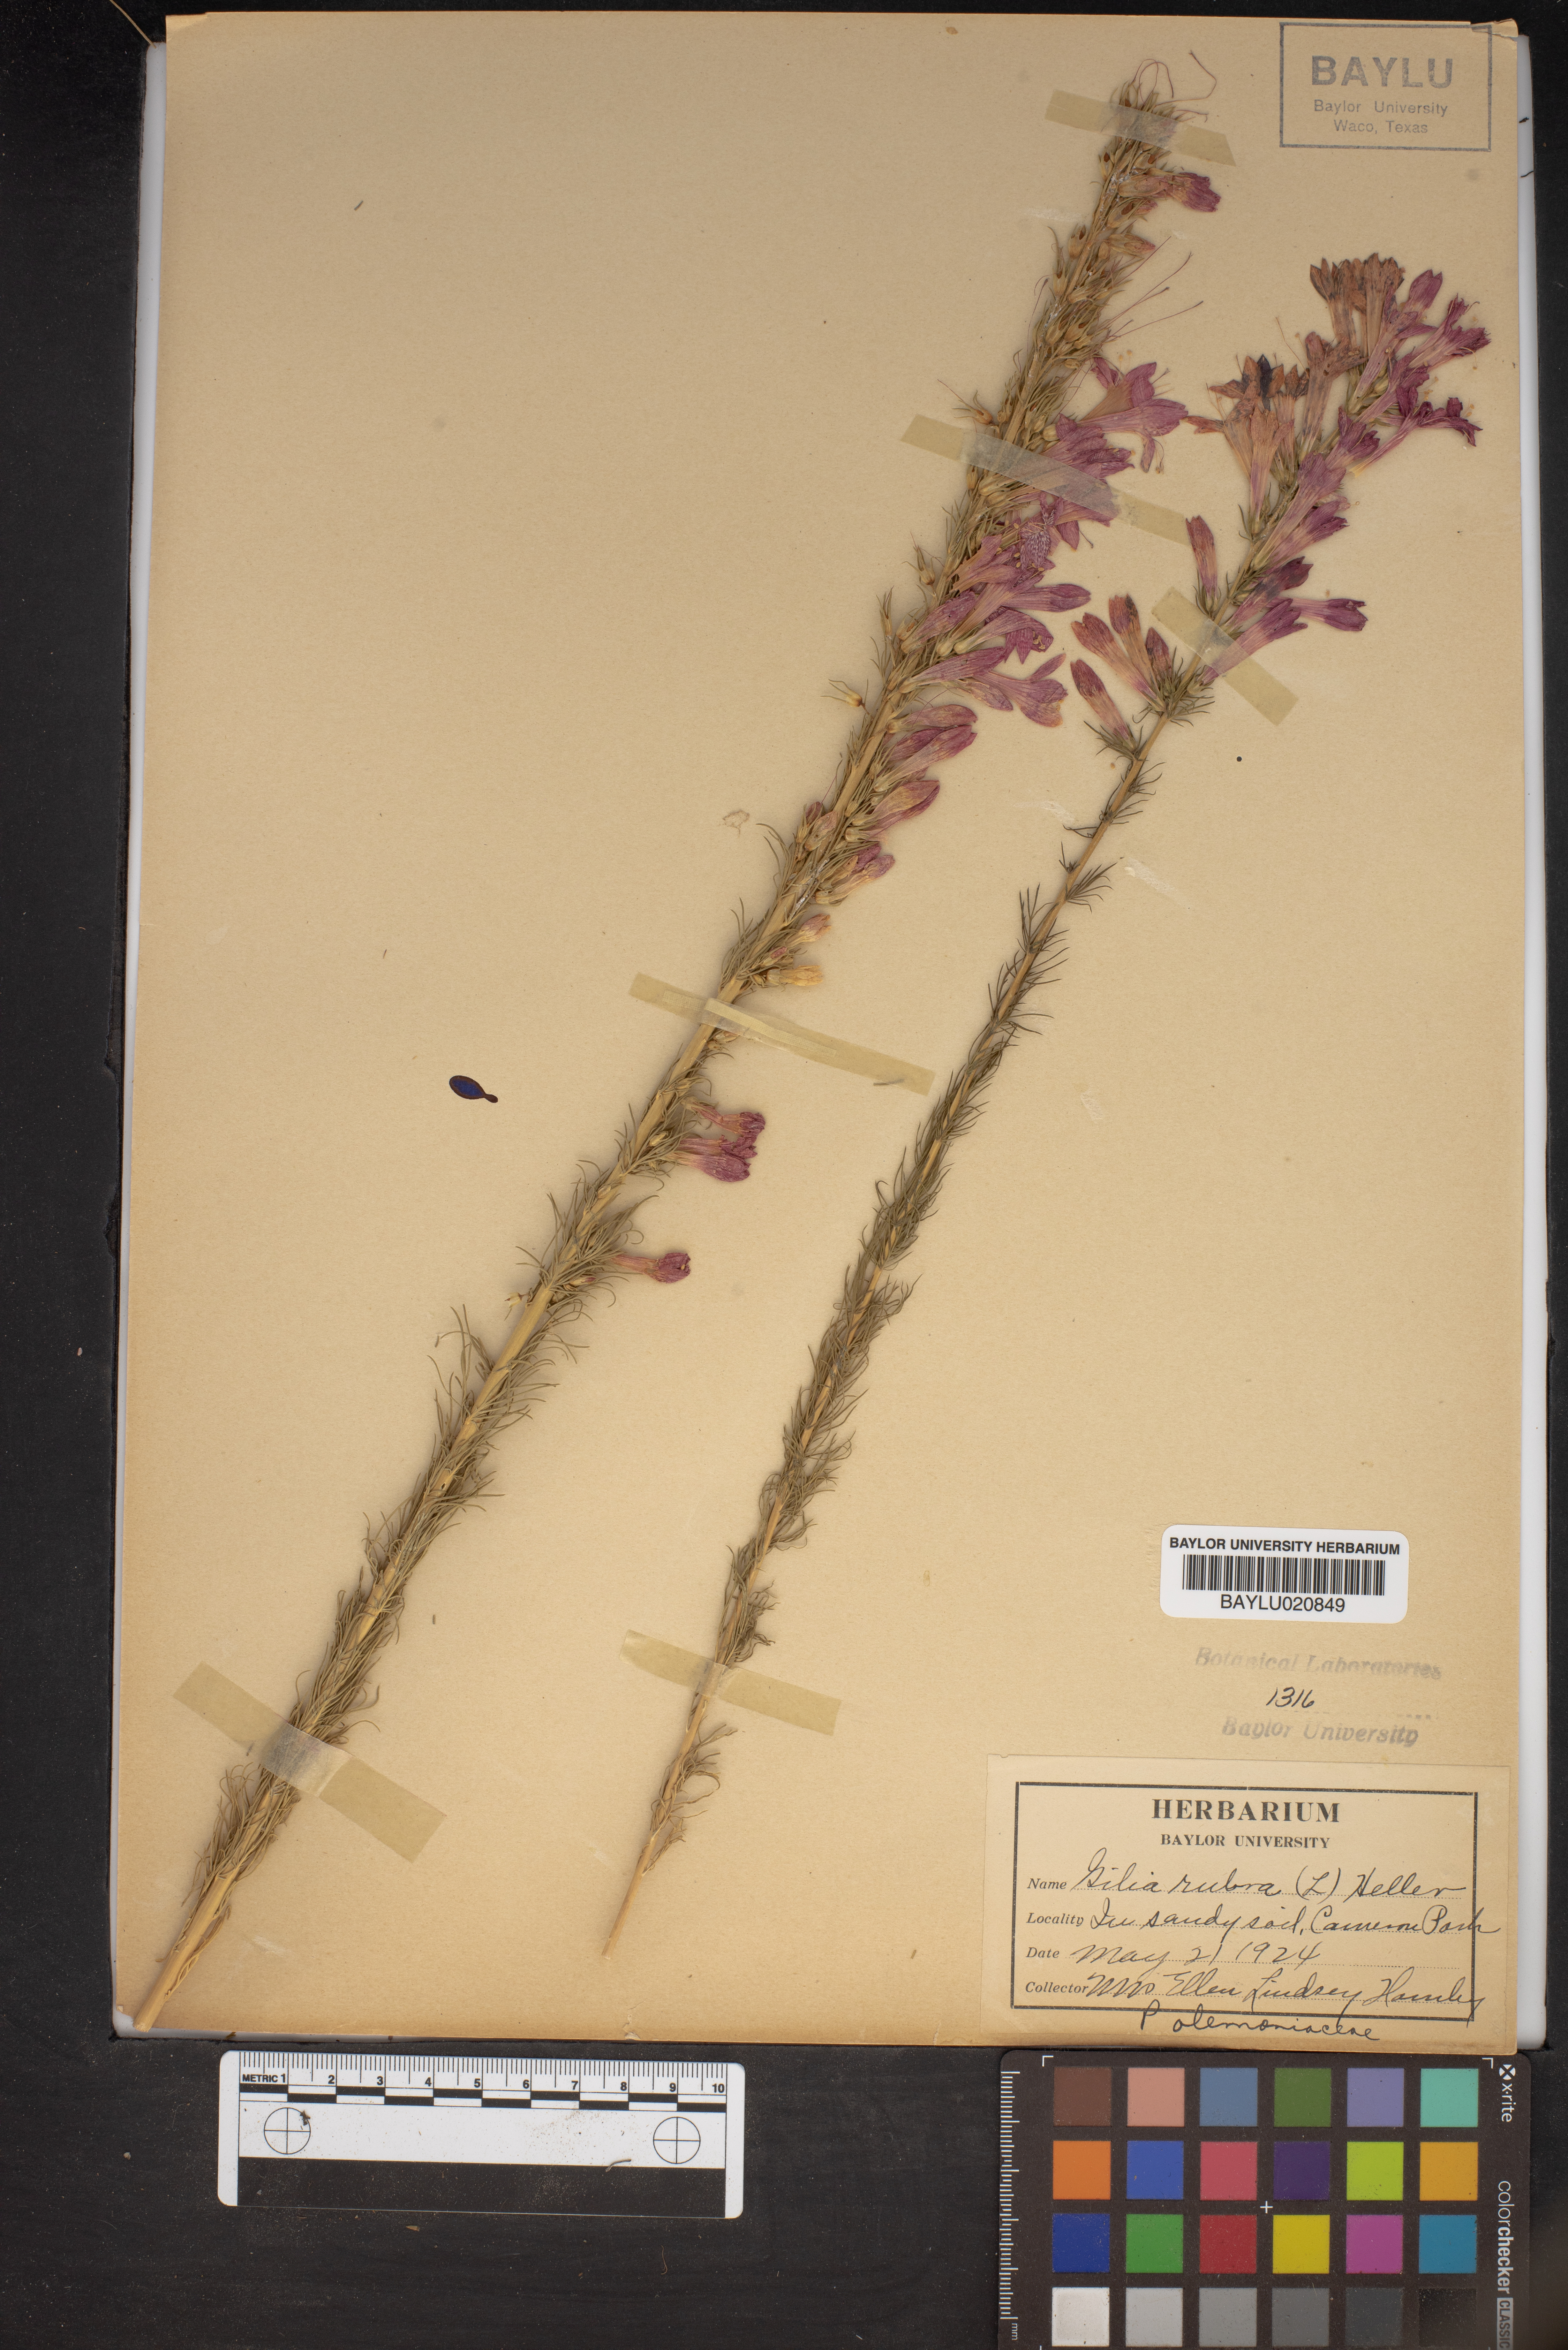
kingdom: Plantae
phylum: Tracheophyta
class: Magnoliopsida
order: Ericales
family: Polemoniaceae
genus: Ipomopsis
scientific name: Ipomopsis rubra
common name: Skyrocket
